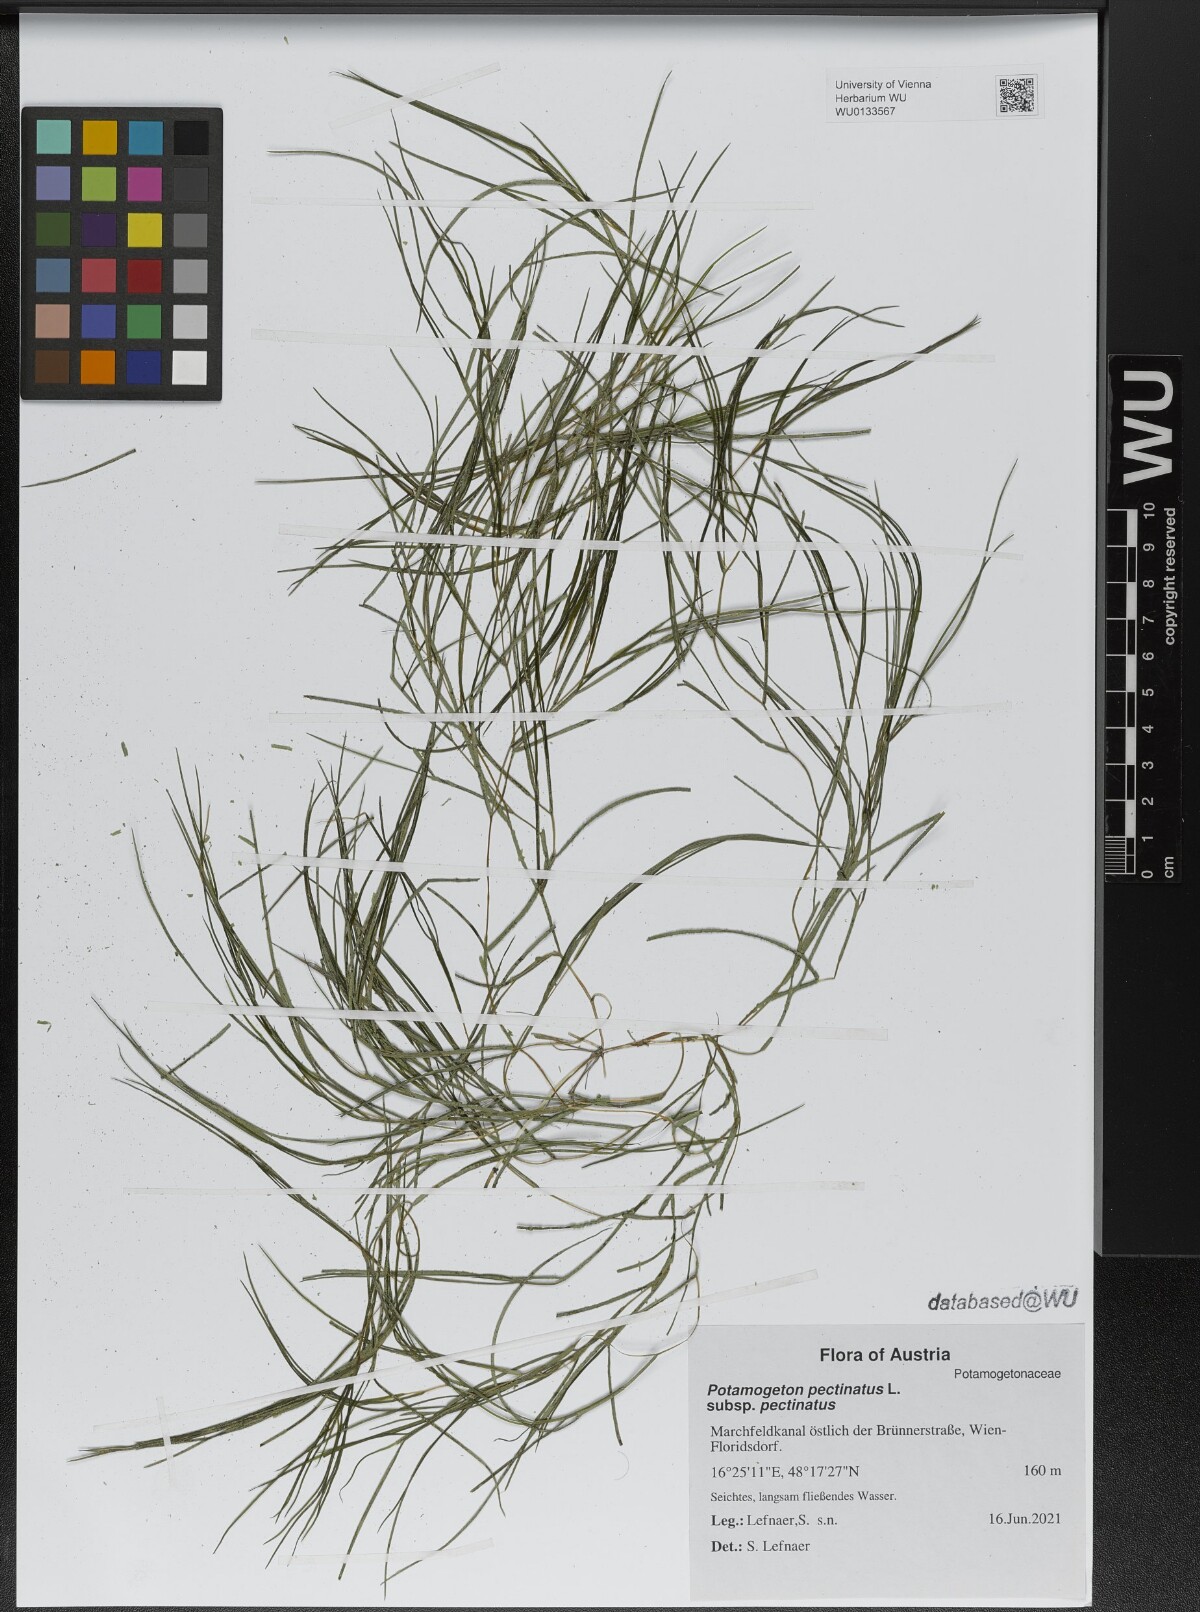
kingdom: Plantae
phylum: Tracheophyta
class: Liliopsida
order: Alismatales
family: Potamogetonaceae
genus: Stuckenia
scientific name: Stuckenia pectinata
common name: Sago pondweed
